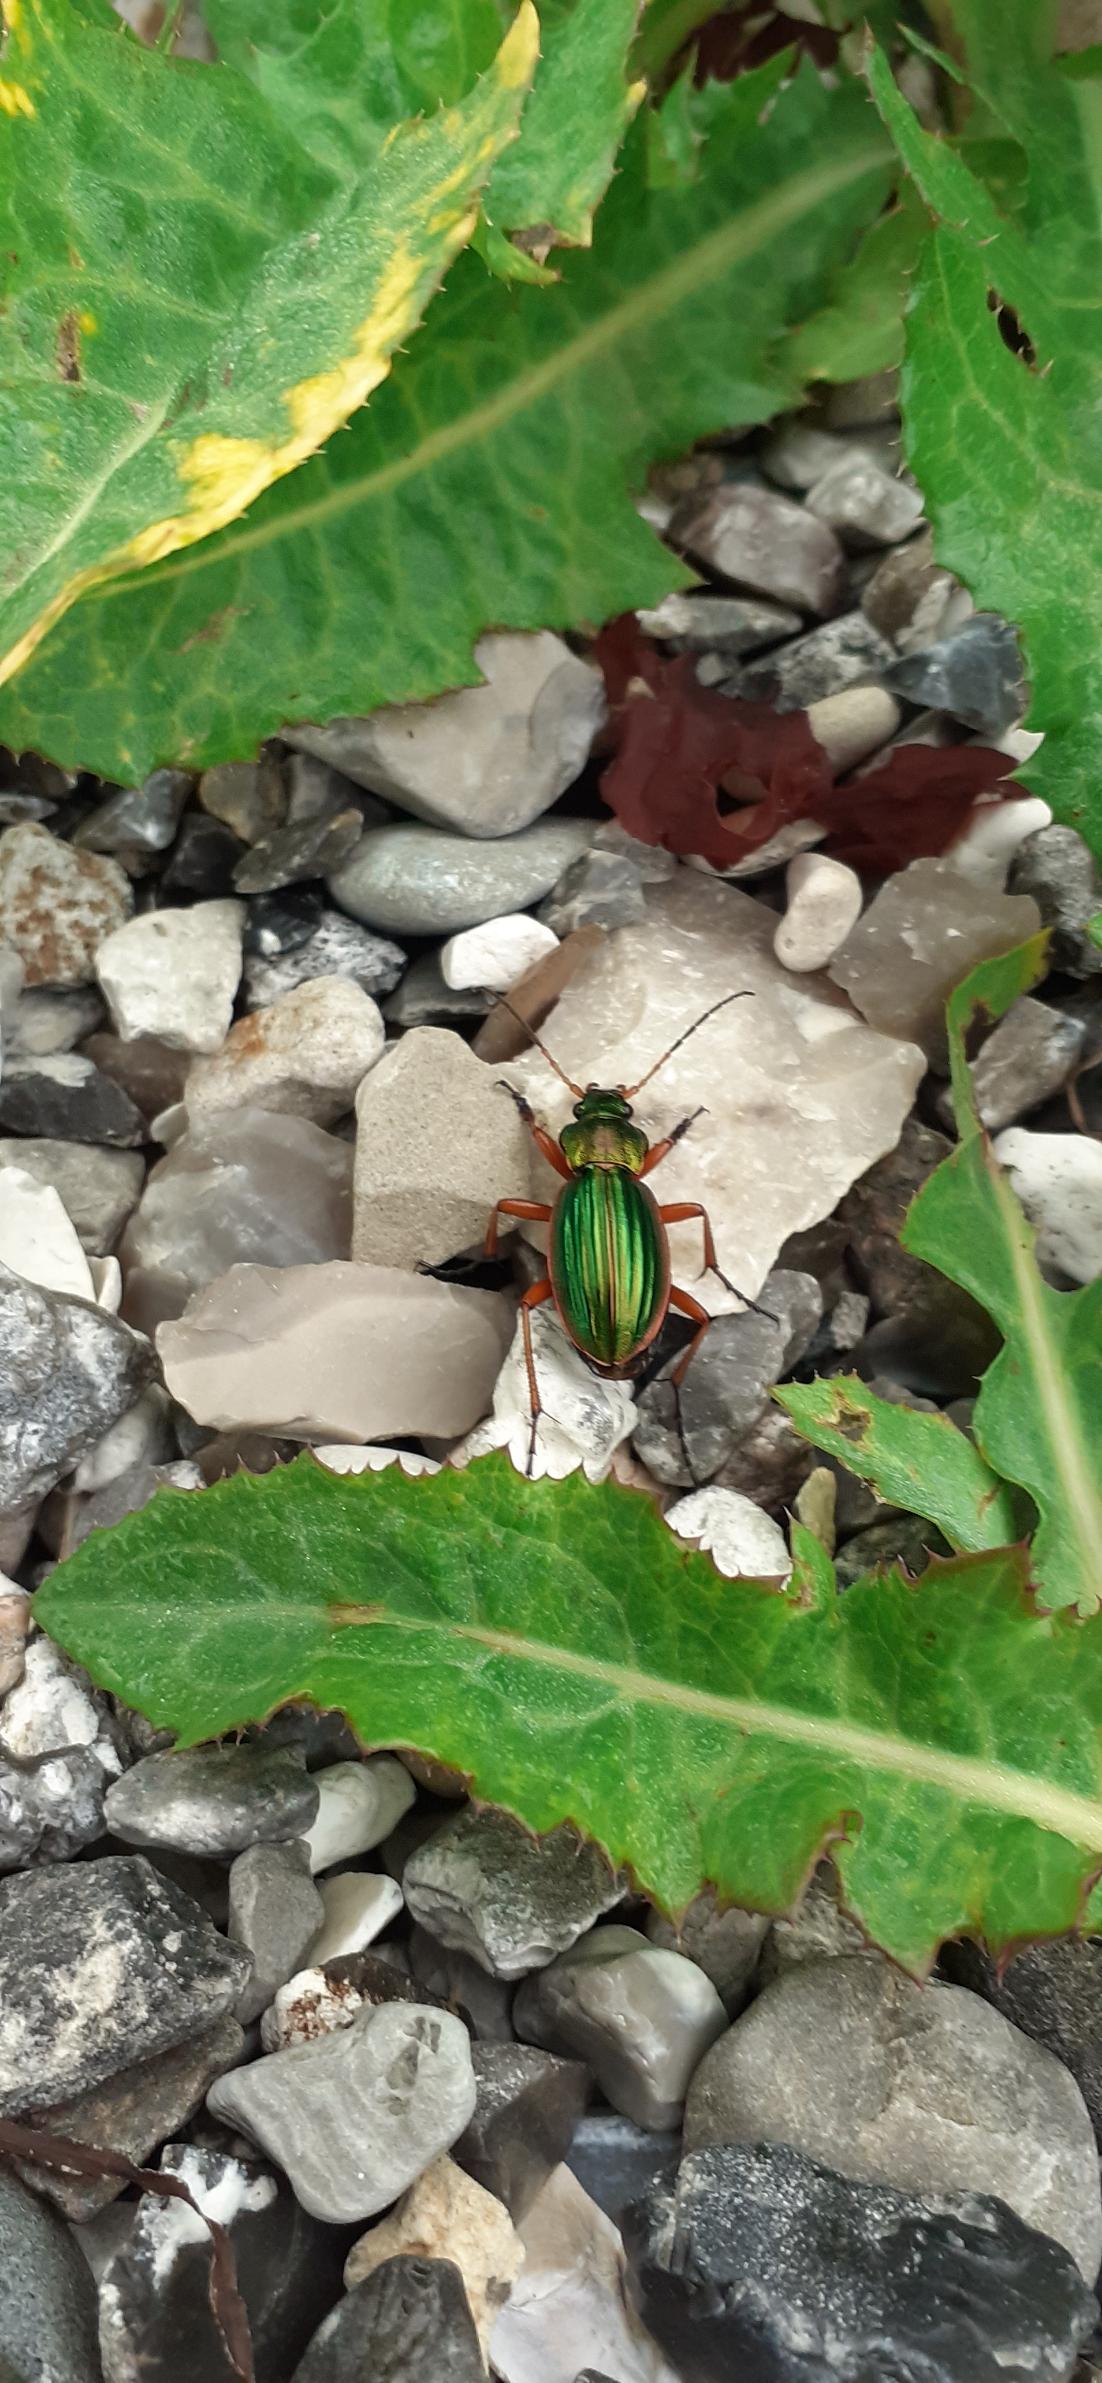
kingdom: Animalia
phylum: Arthropoda
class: Insecta
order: Coleoptera
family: Carabidae
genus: Carabus
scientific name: Carabus auratus
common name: Stor guldløber
